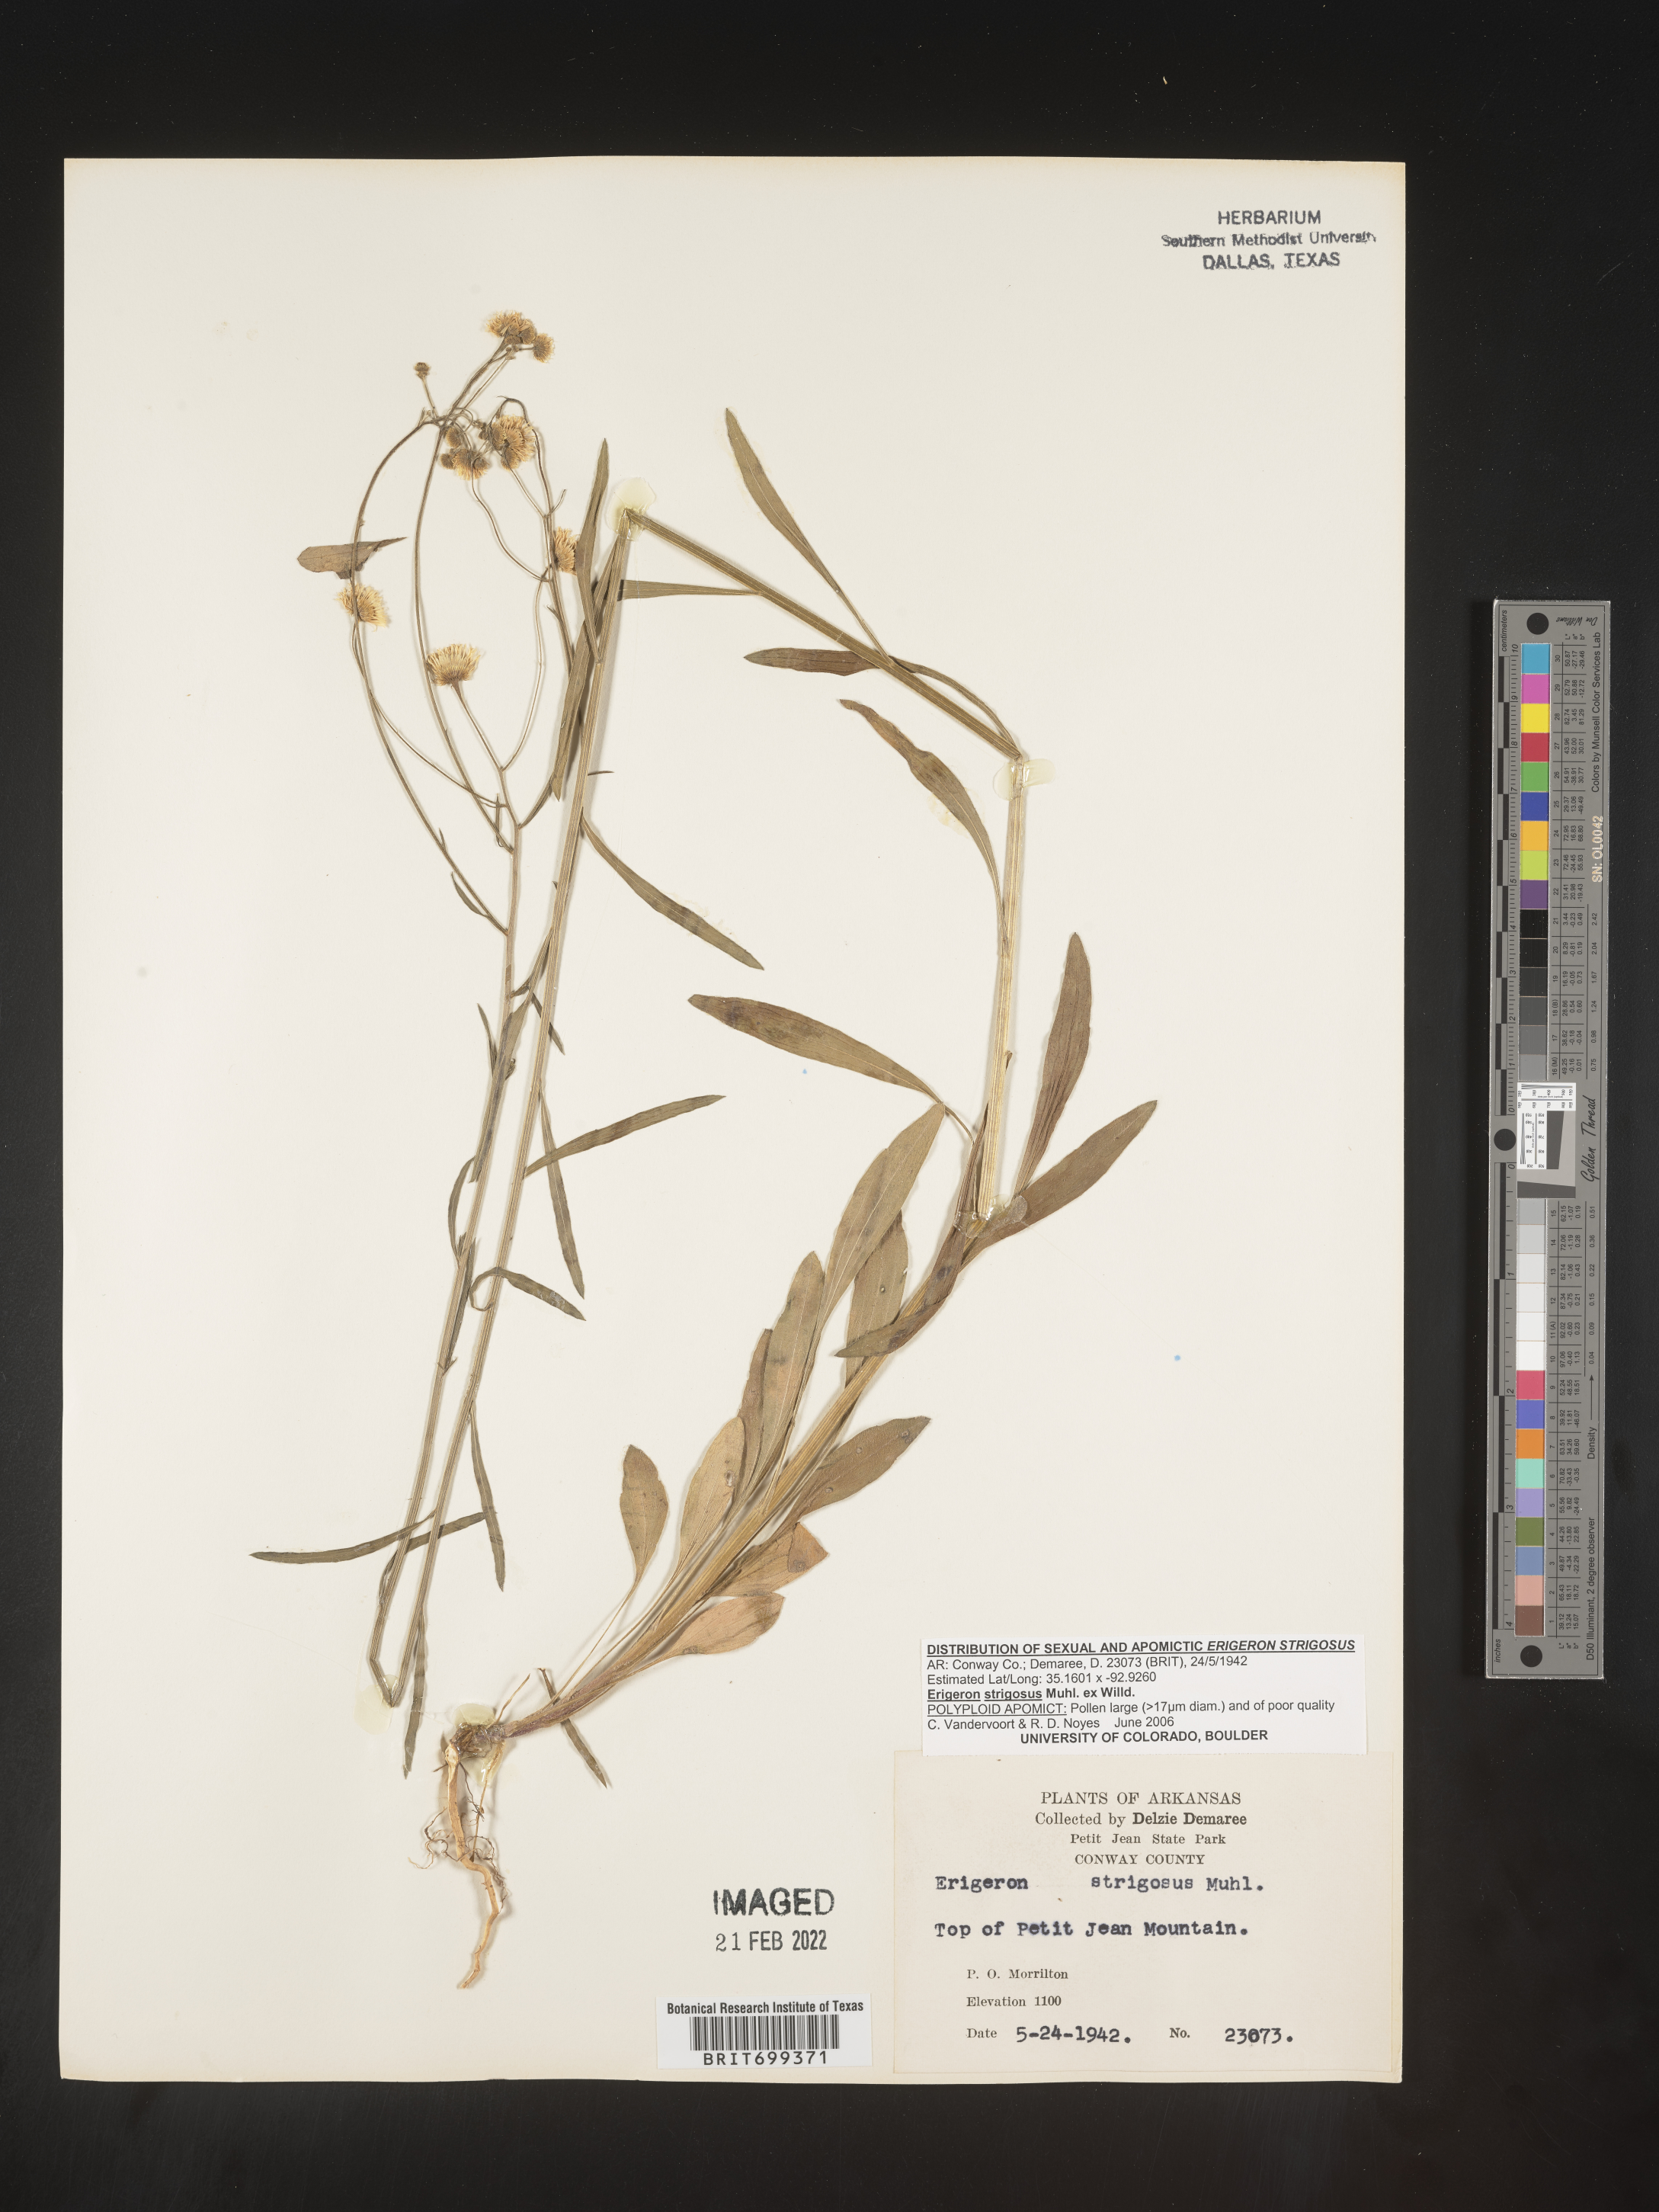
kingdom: Plantae
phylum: Tracheophyta
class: Magnoliopsida
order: Asterales
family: Asteraceae
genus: Erigeron
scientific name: Erigeron strigosus
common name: Common eastern fleabane
